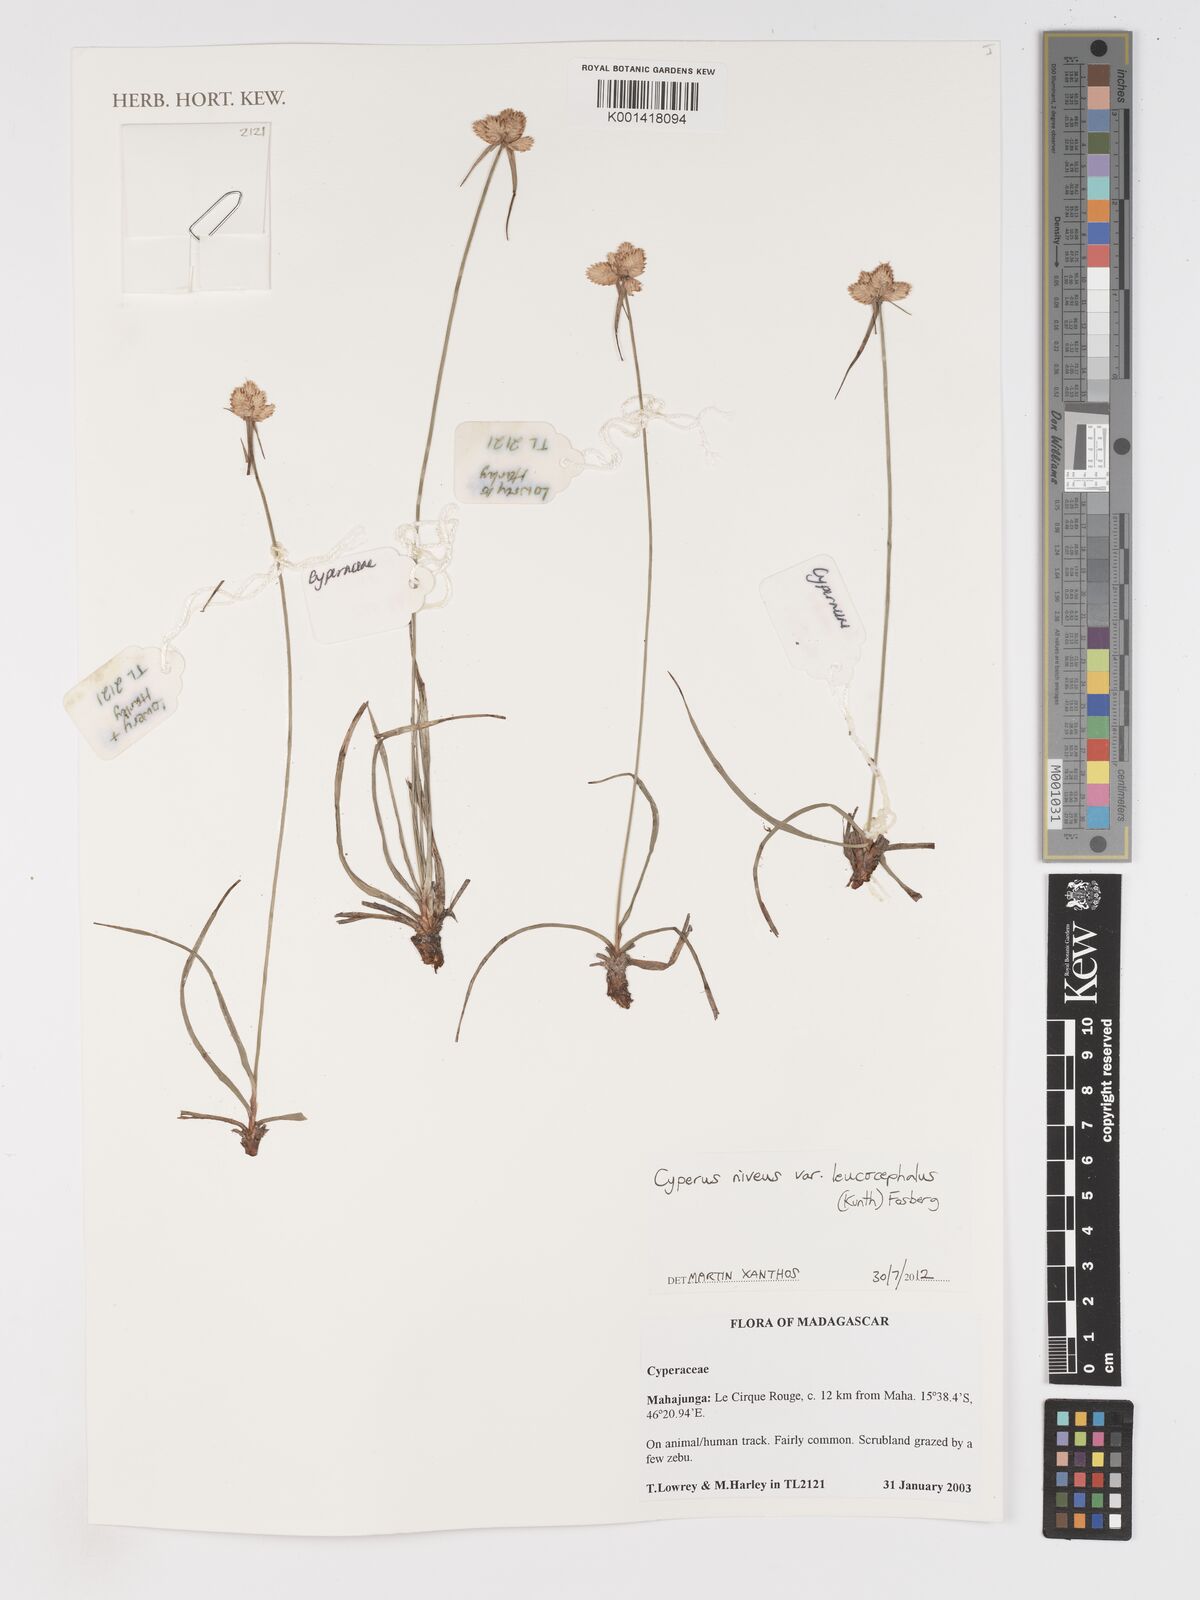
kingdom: Plantae
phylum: Tracheophyta
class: Liliopsida
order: Poales
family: Cyperaceae
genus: Cyperus
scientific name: Cyperus niveus
